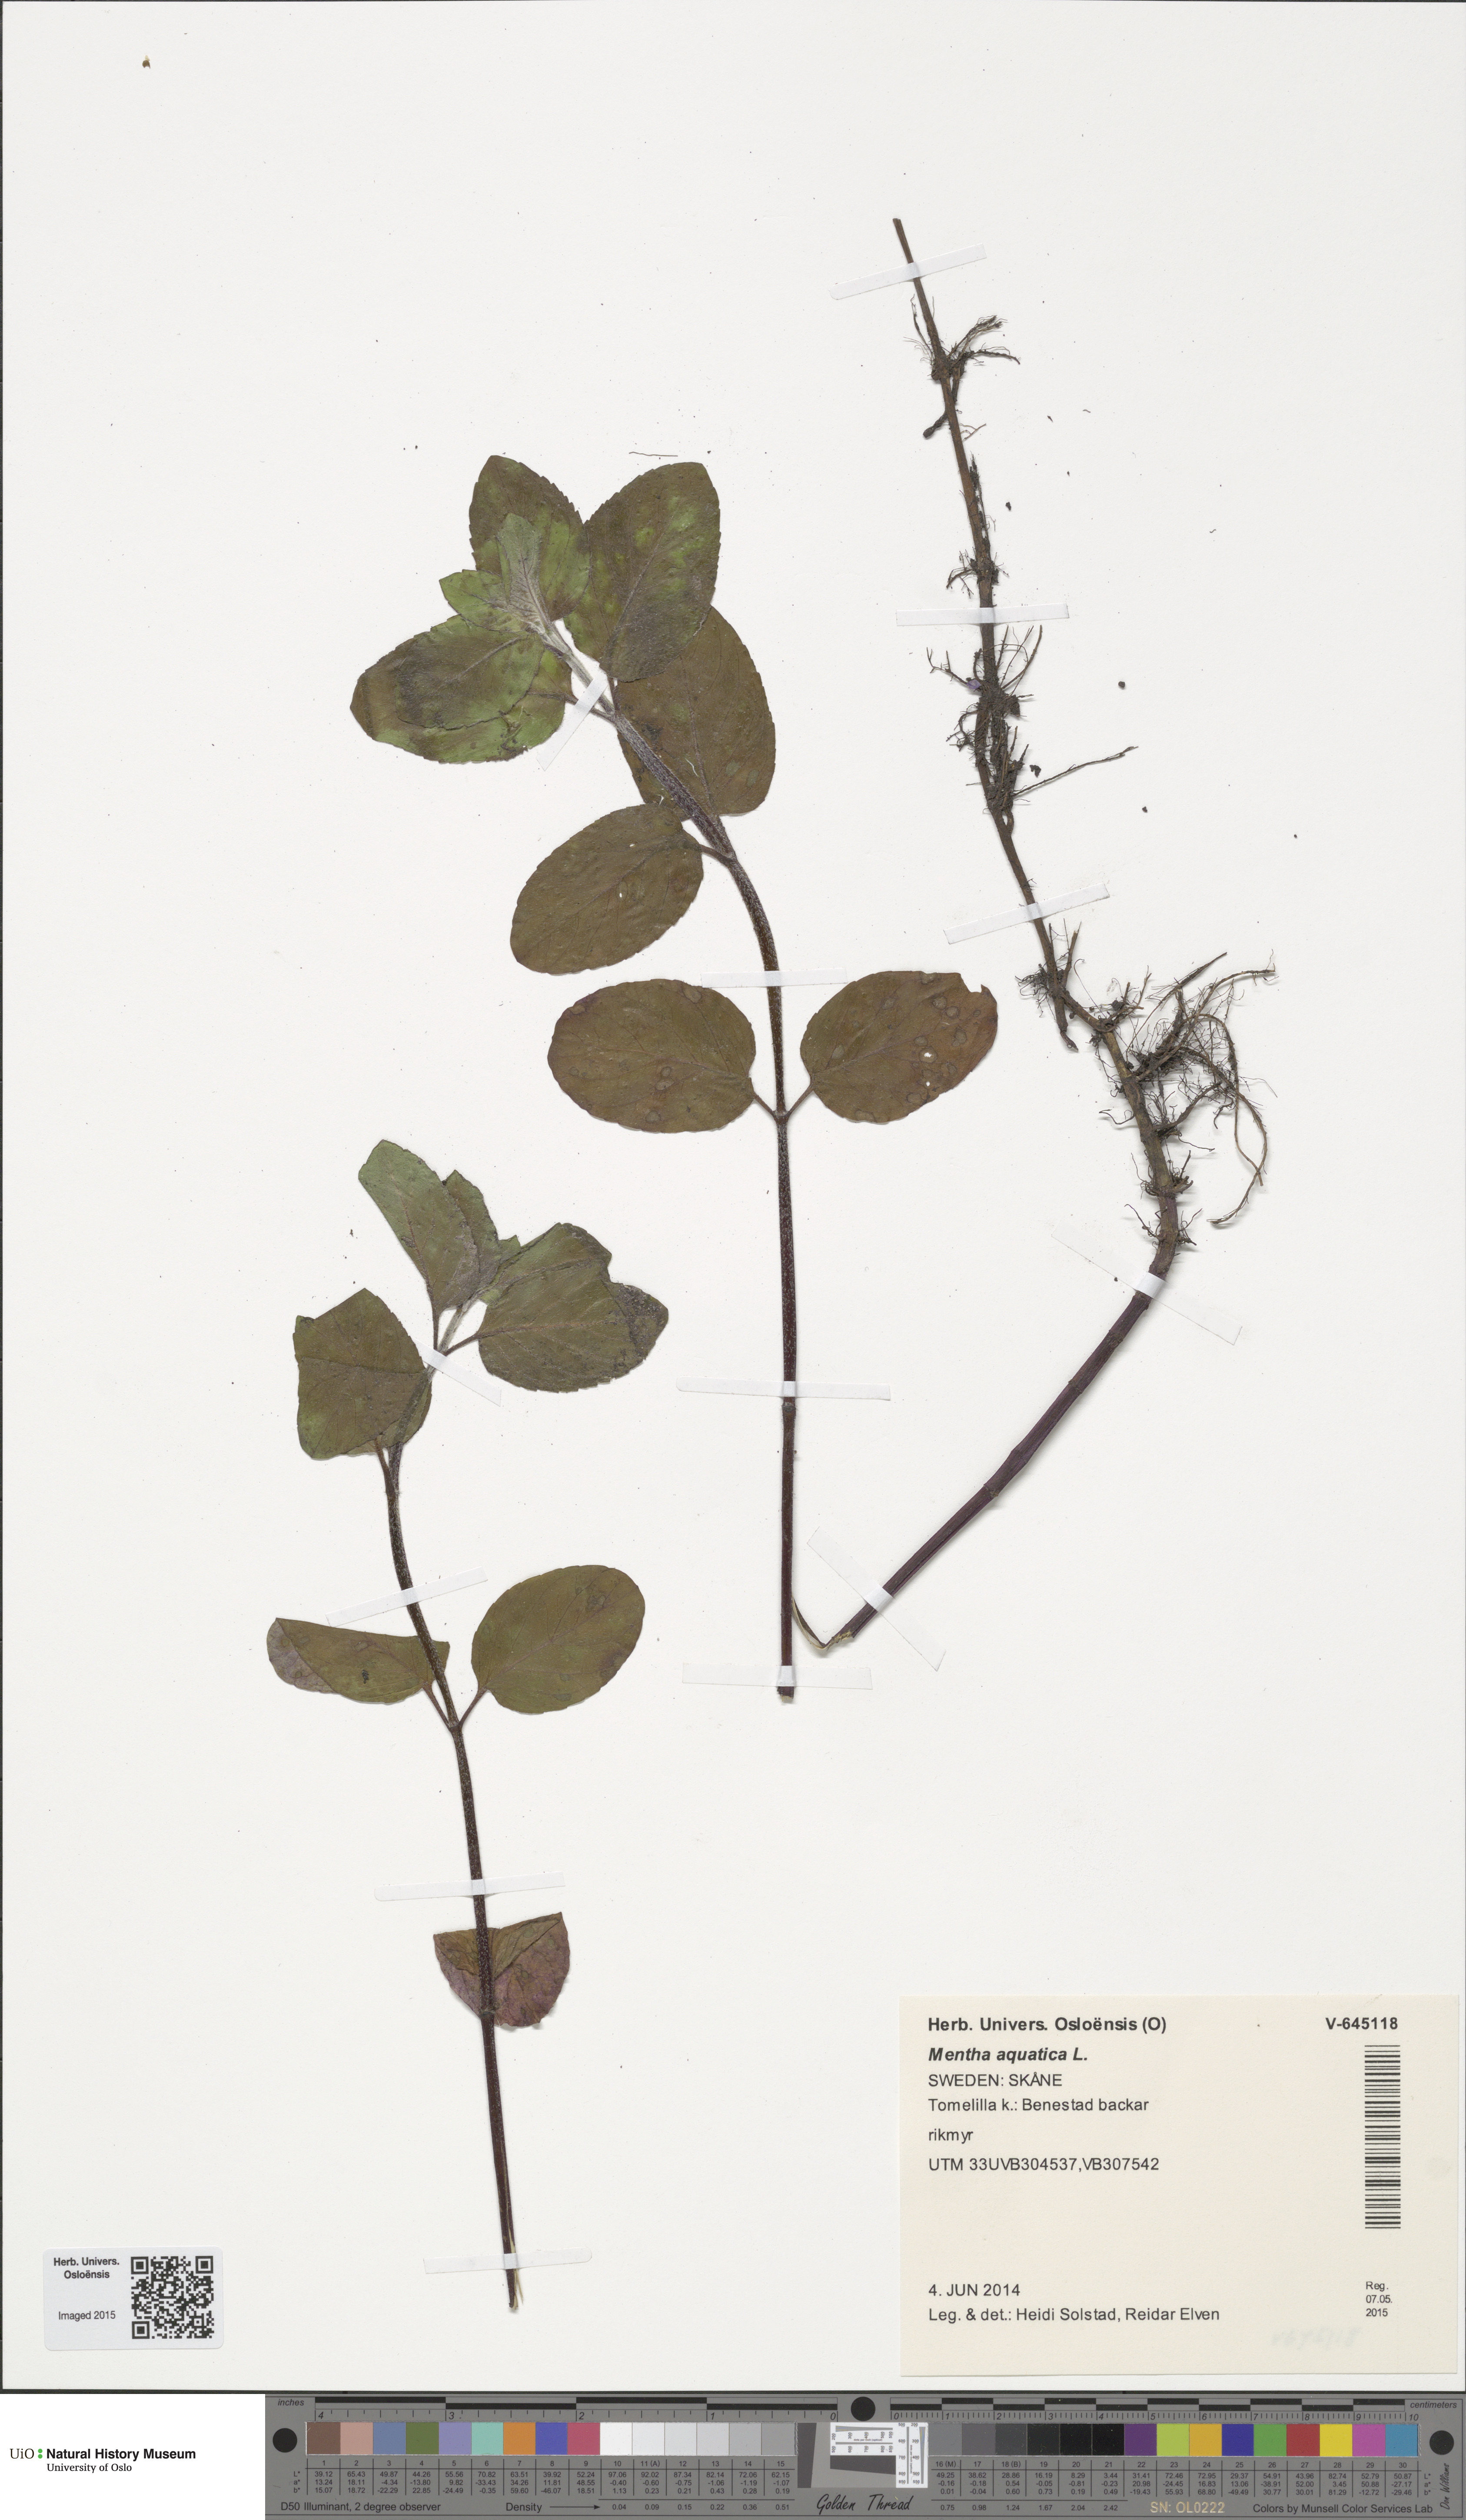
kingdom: Plantae
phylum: Tracheophyta
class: Magnoliopsida
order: Lamiales
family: Lamiaceae
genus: Mentha
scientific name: Mentha aquatica
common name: Water mint
